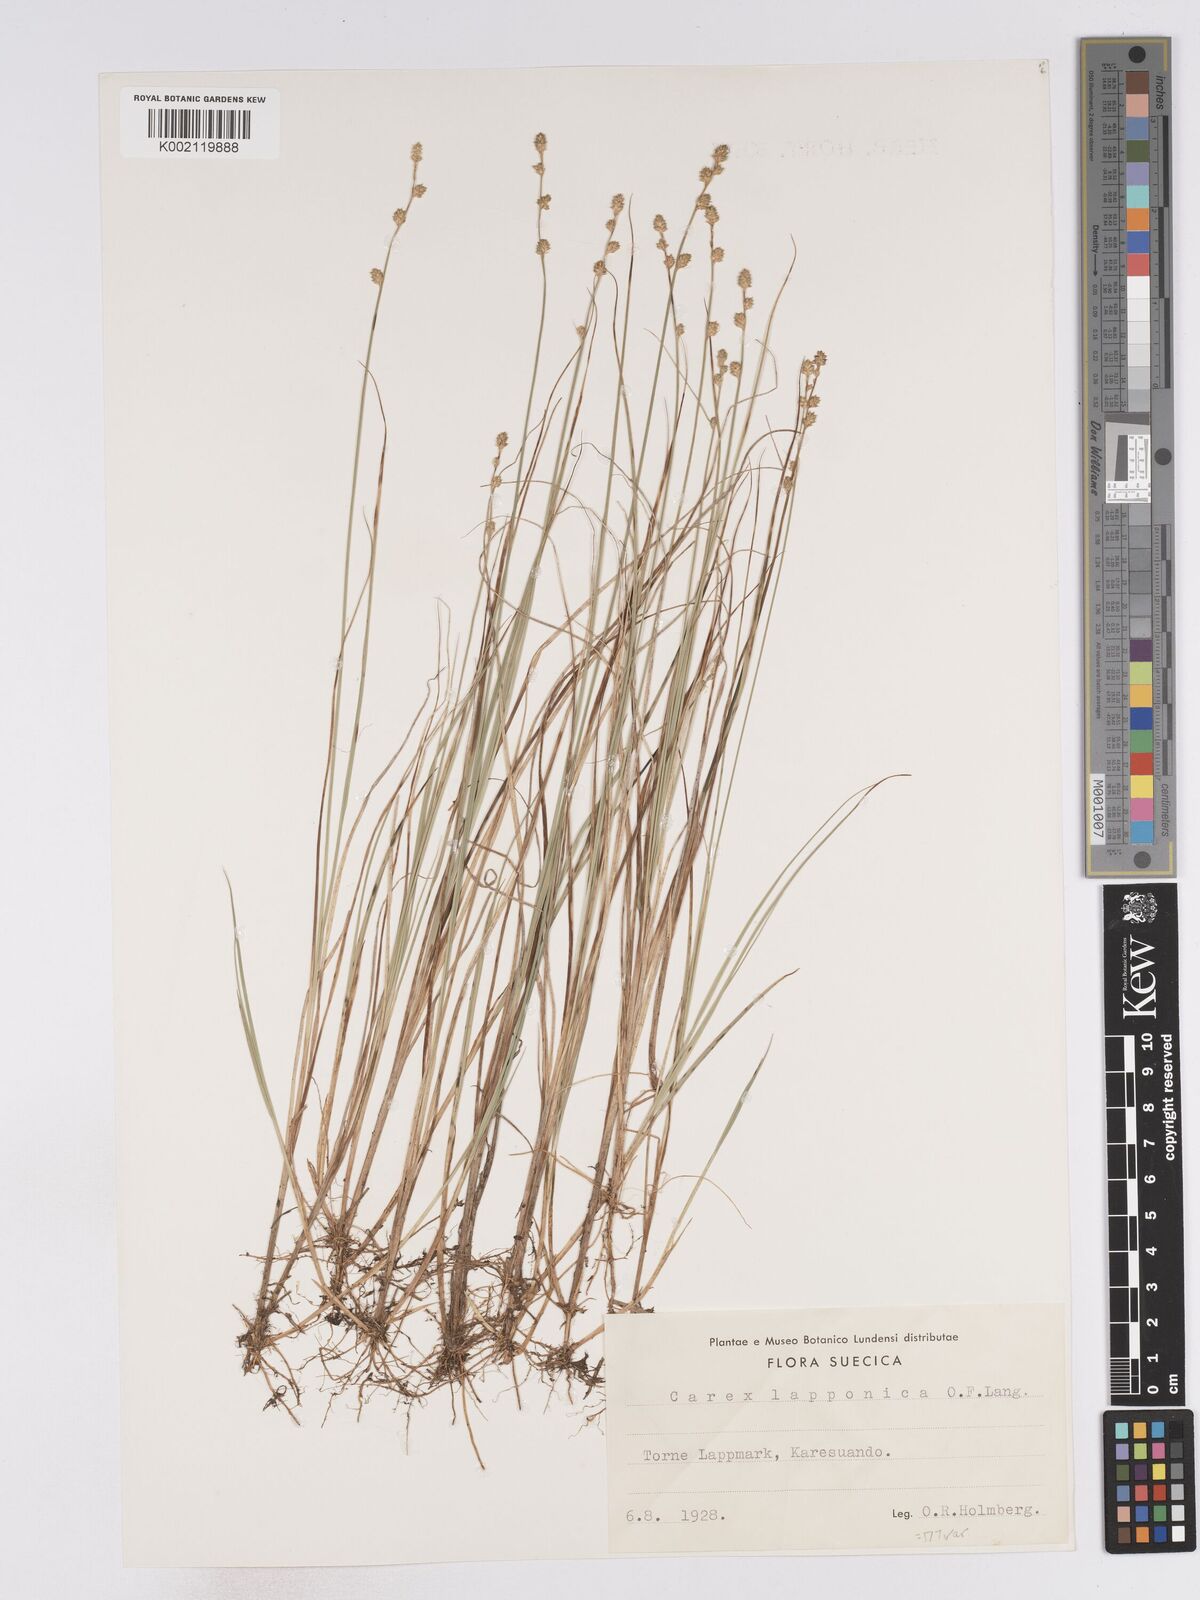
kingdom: Plantae
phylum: Tracheophyta
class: Liliopsida
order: Poales
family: Cyperaceae
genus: Carex
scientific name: Carex lapponica
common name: Lapland sedge
